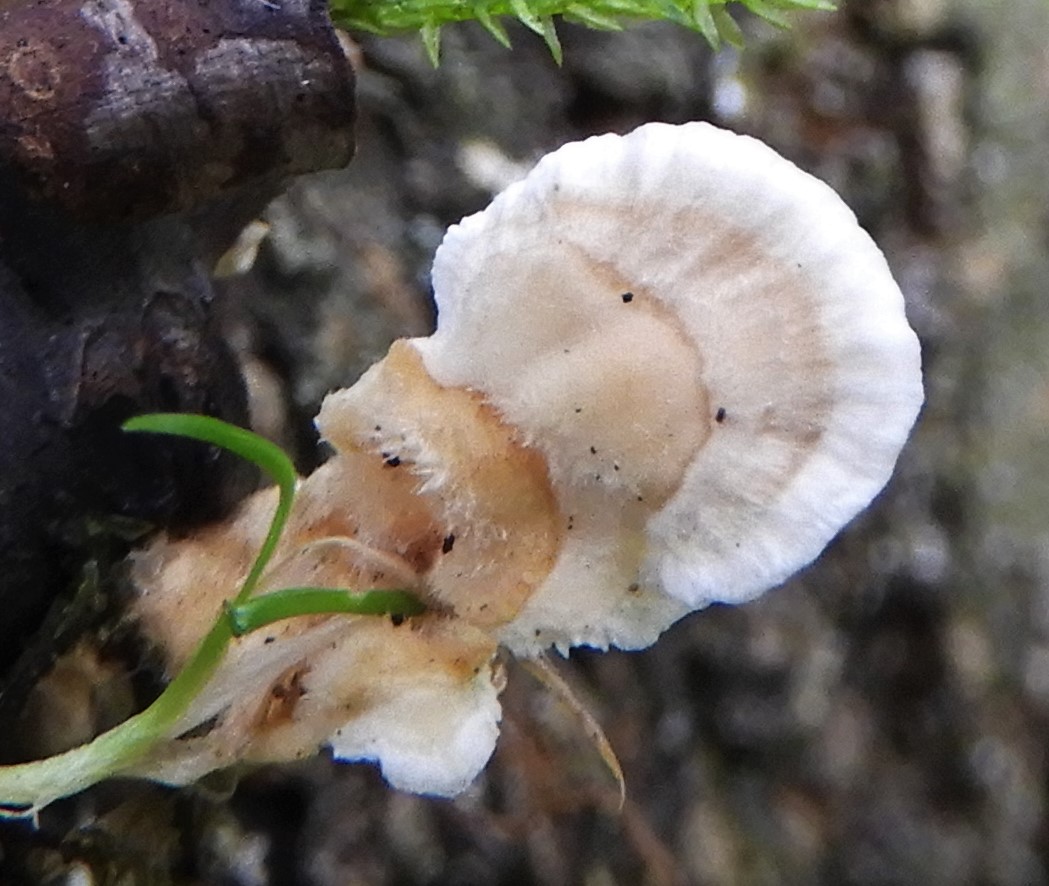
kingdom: Fungi
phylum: Basidiomycota
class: Agaricomycetes
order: Polyporales
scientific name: Polyporales
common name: poresvampordenen
